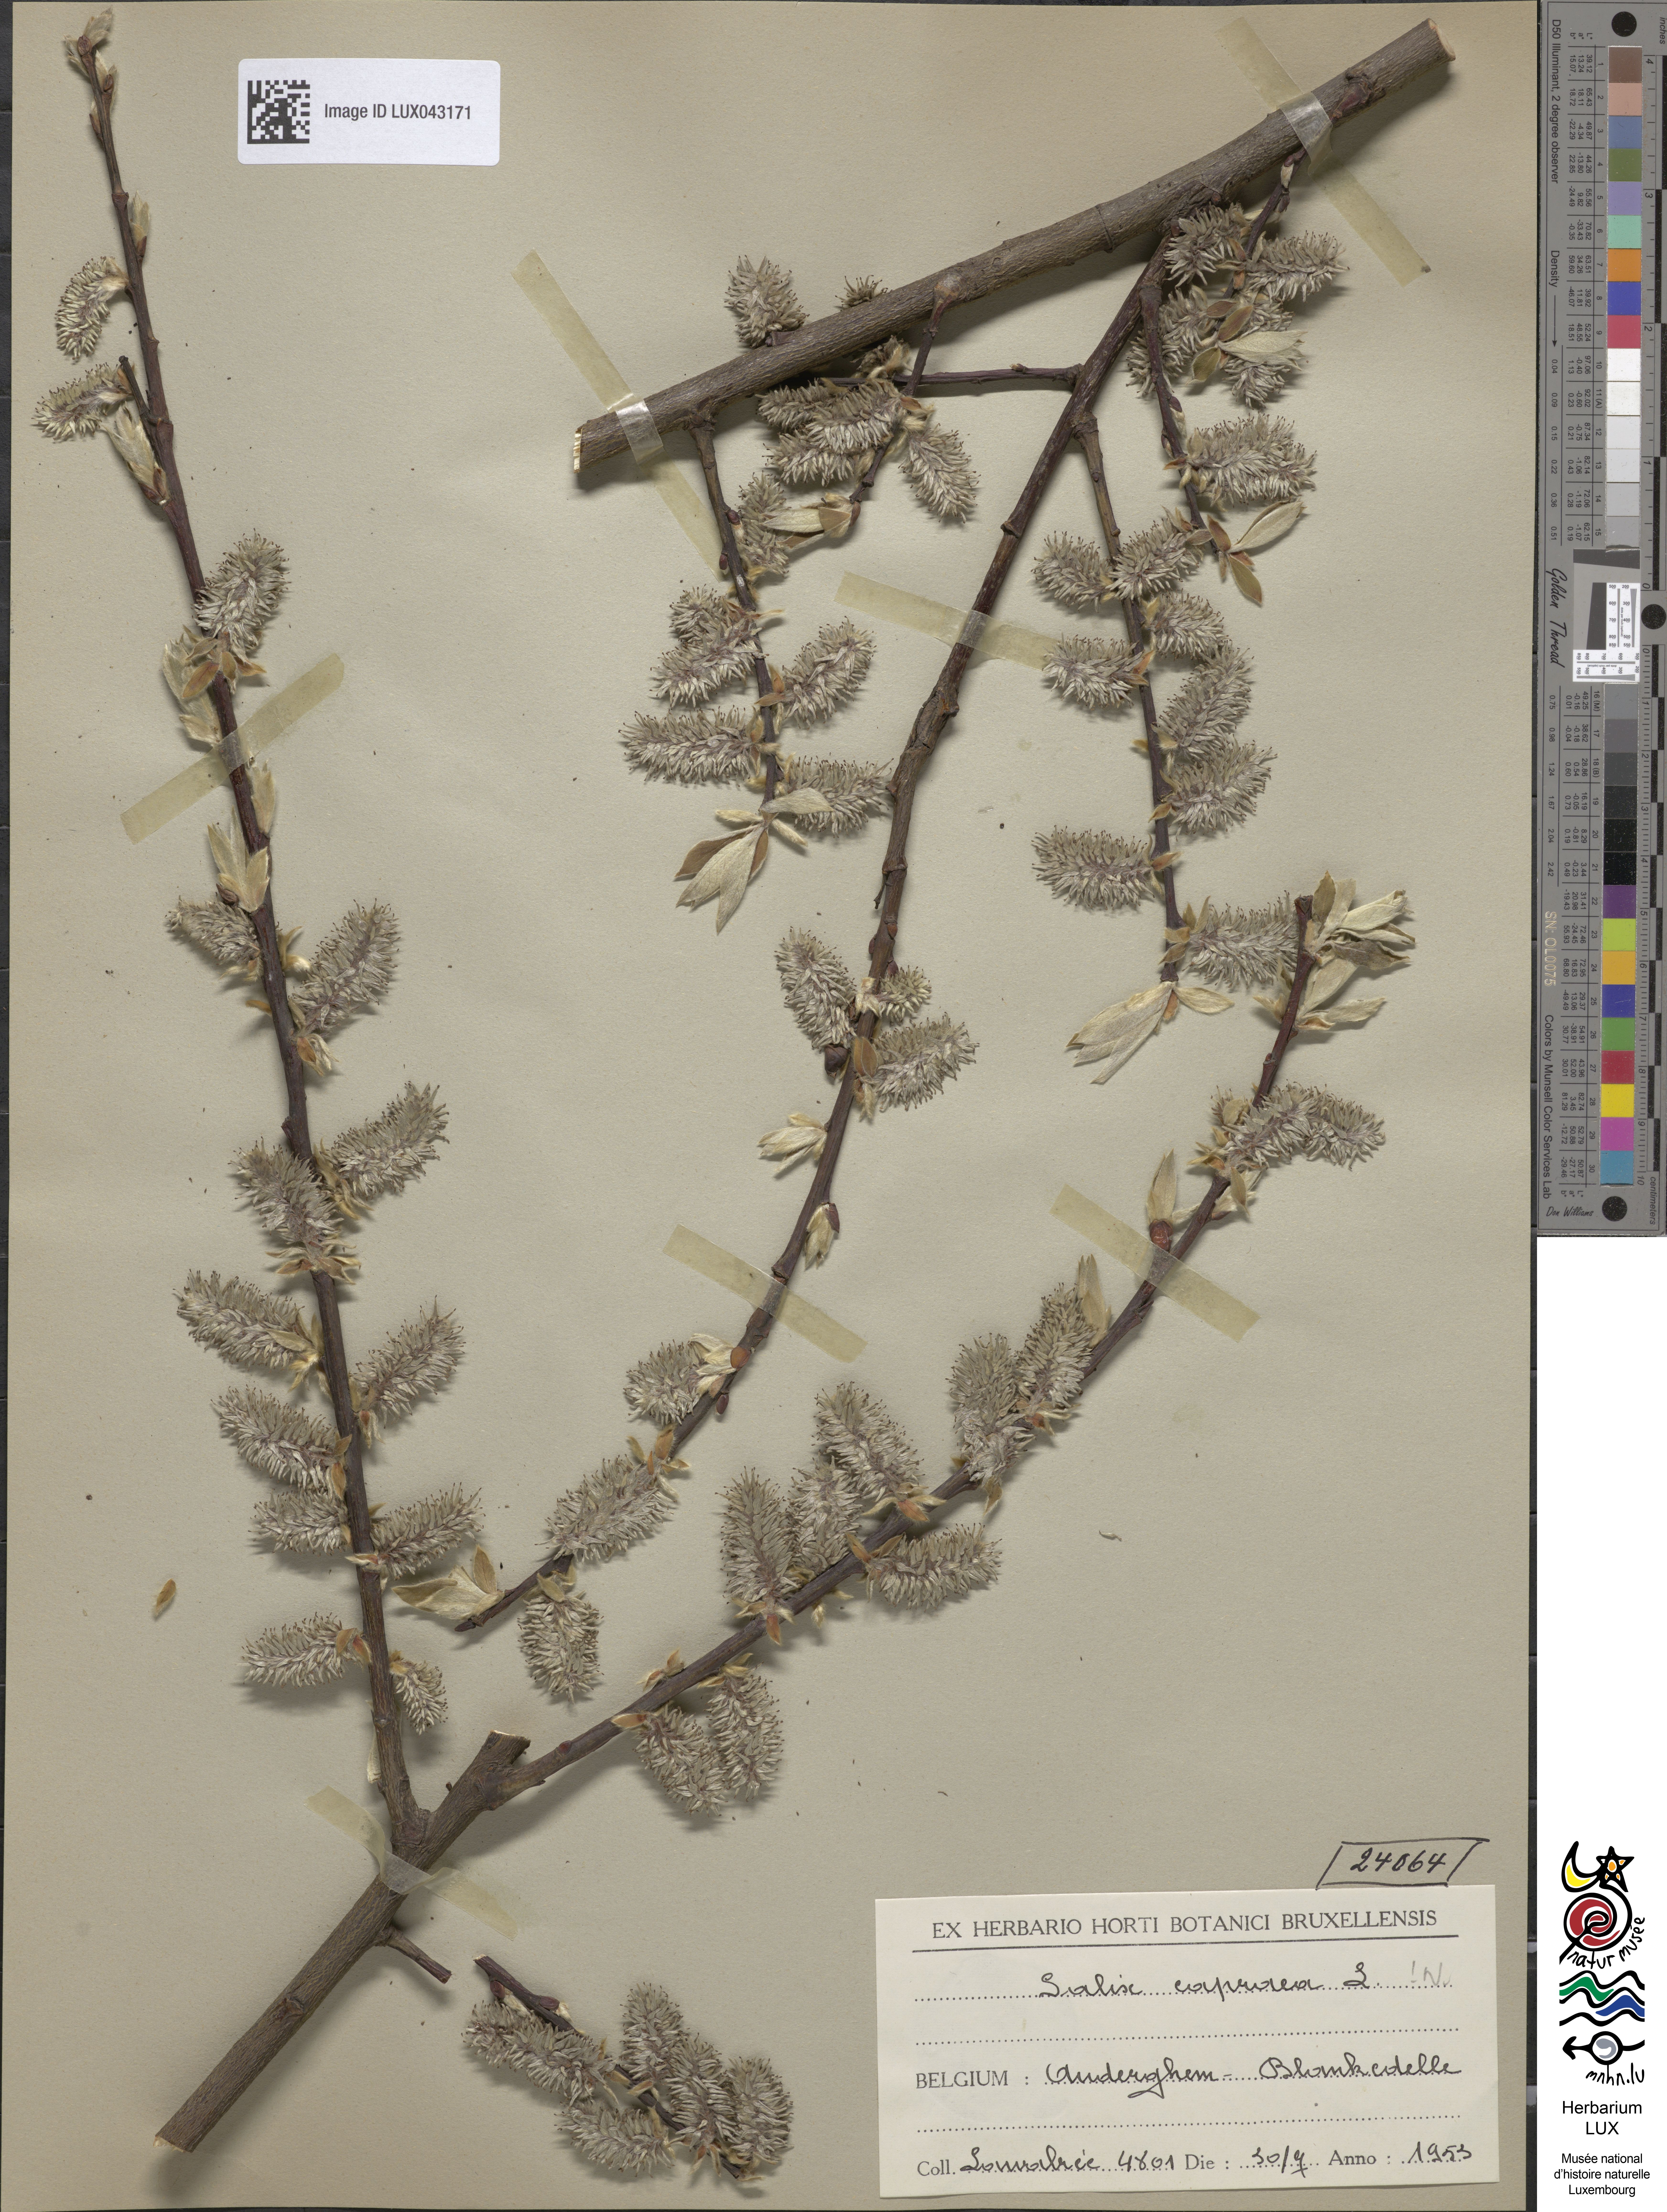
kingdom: Plantae
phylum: Tracheophyta
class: Magnoliopsida
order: Malpighiales
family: Salicaceae
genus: Salix
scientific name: Salix caprea
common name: Goat willow
